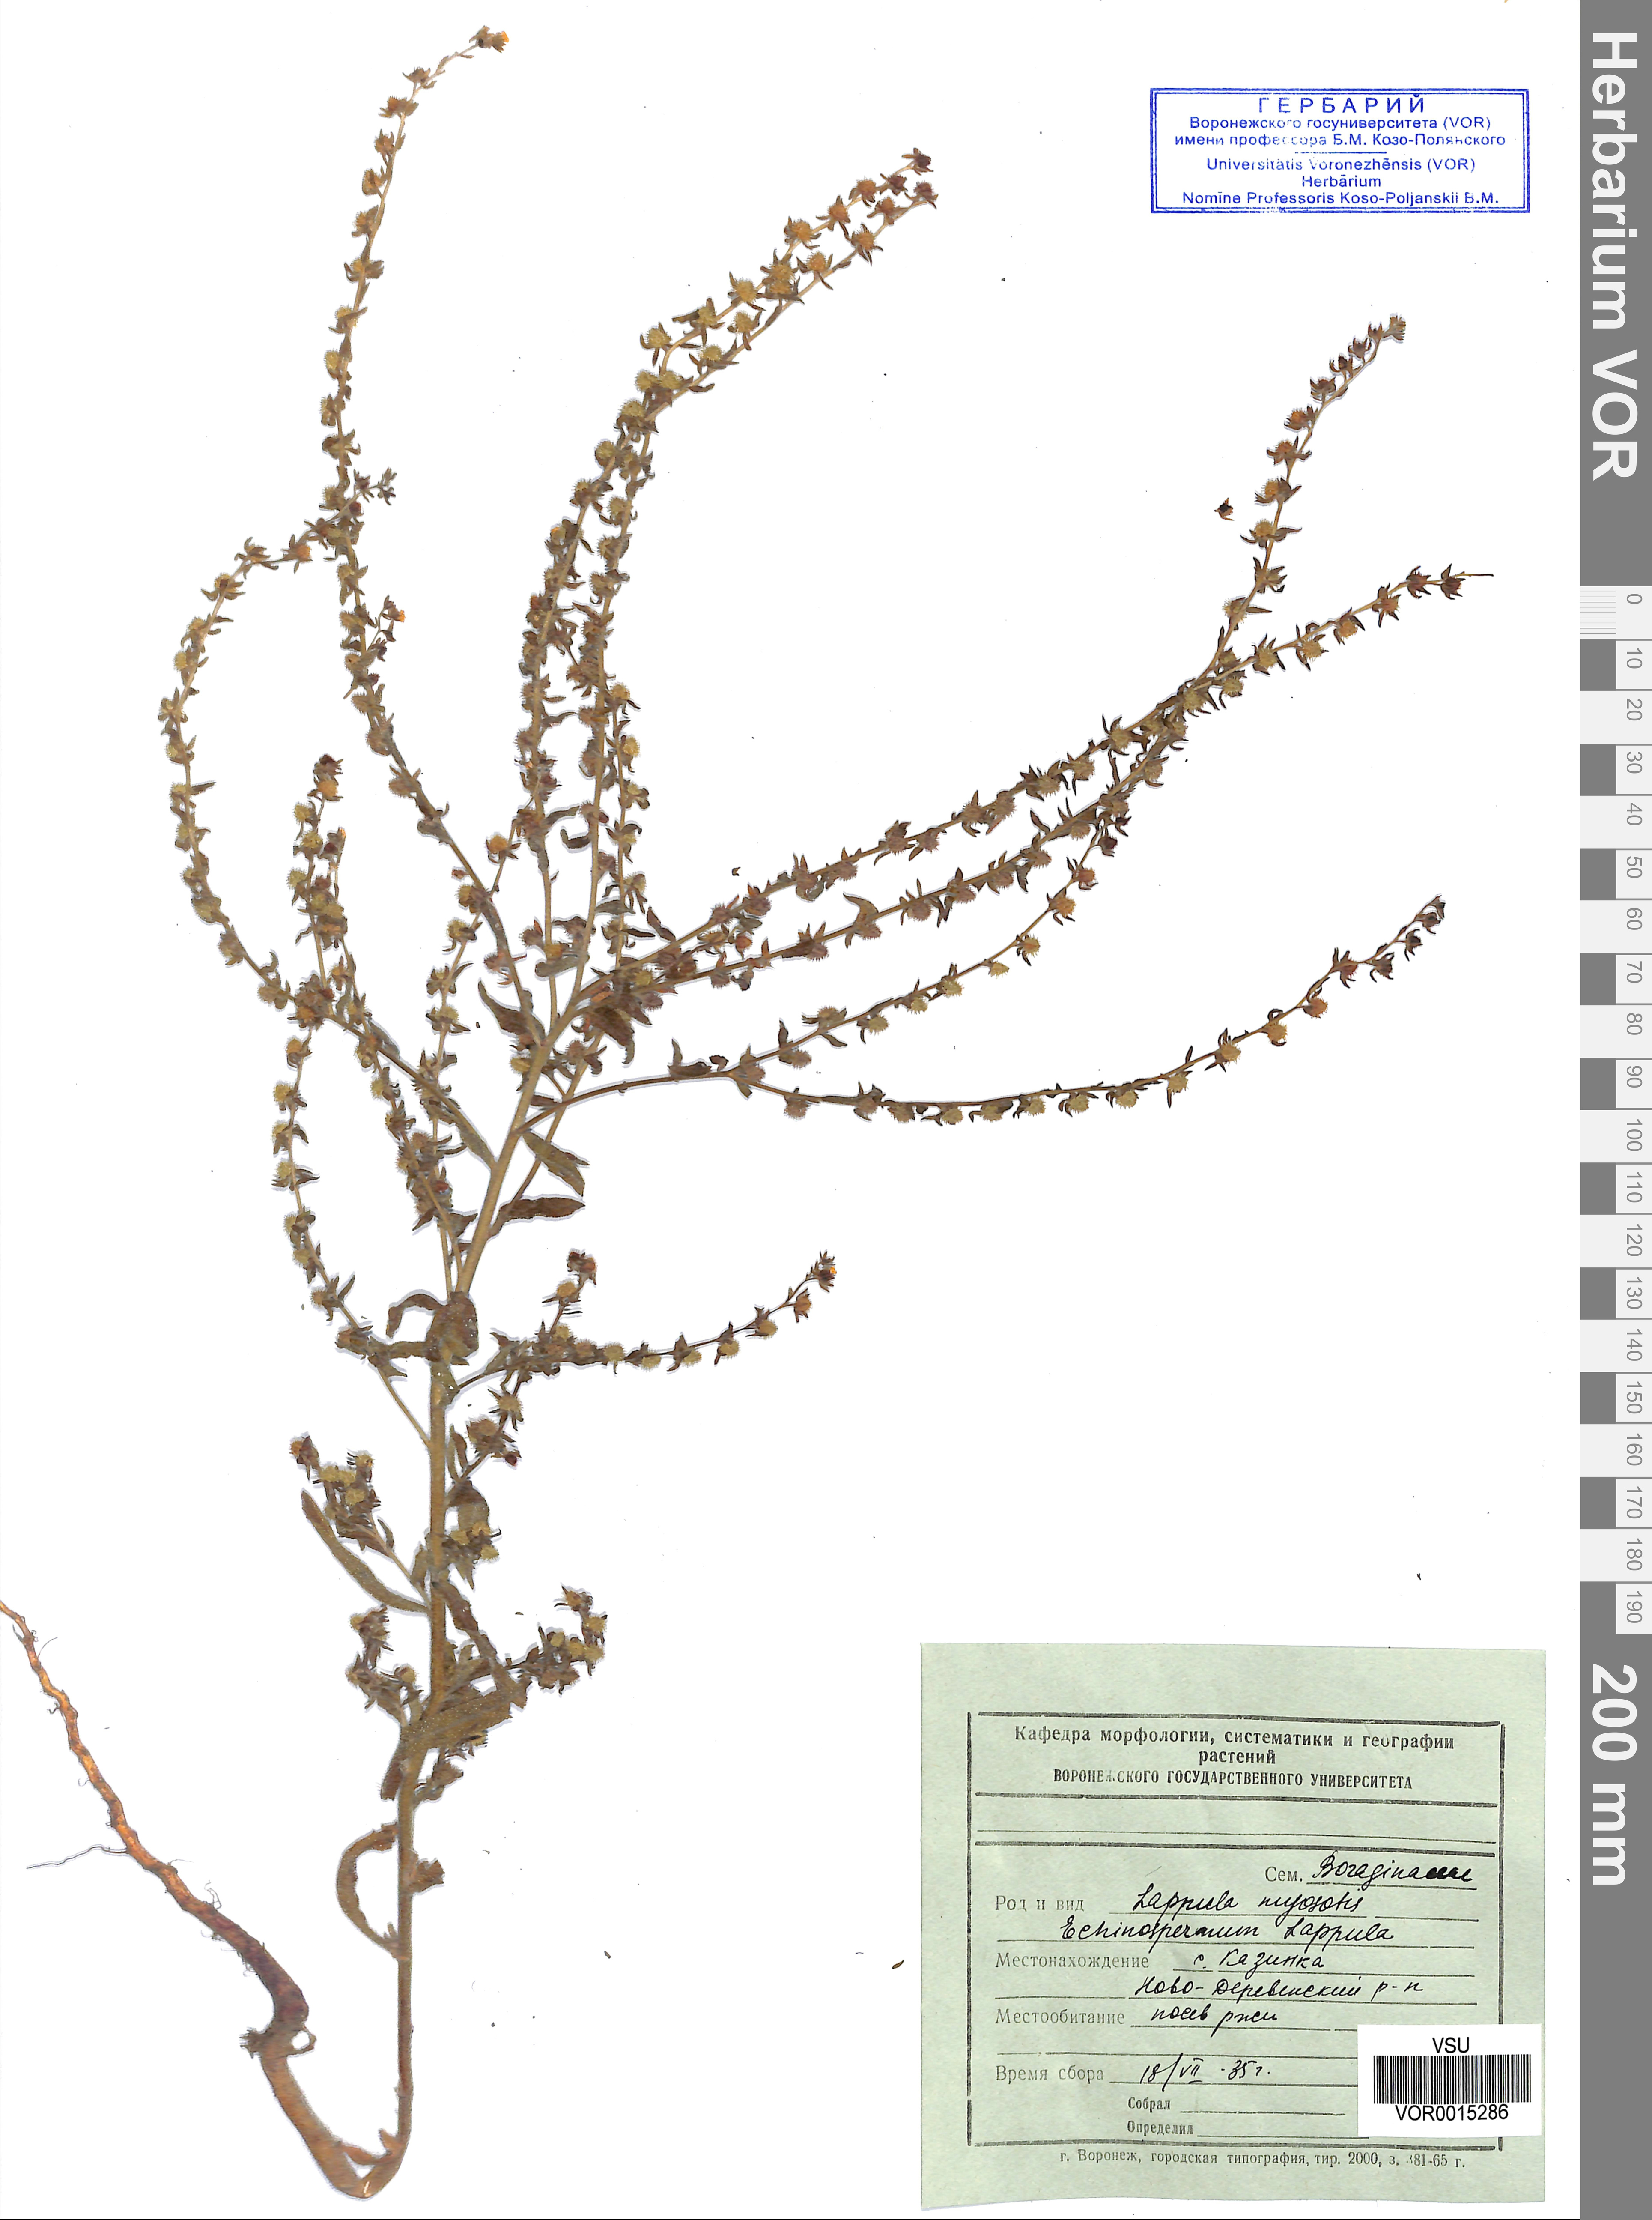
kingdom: Plantae
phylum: Tracheophyta
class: Magnoliopsida
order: Boraginales
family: Boraginaceae
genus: Lappula
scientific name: Lappula squarrosa
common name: European stickseed
